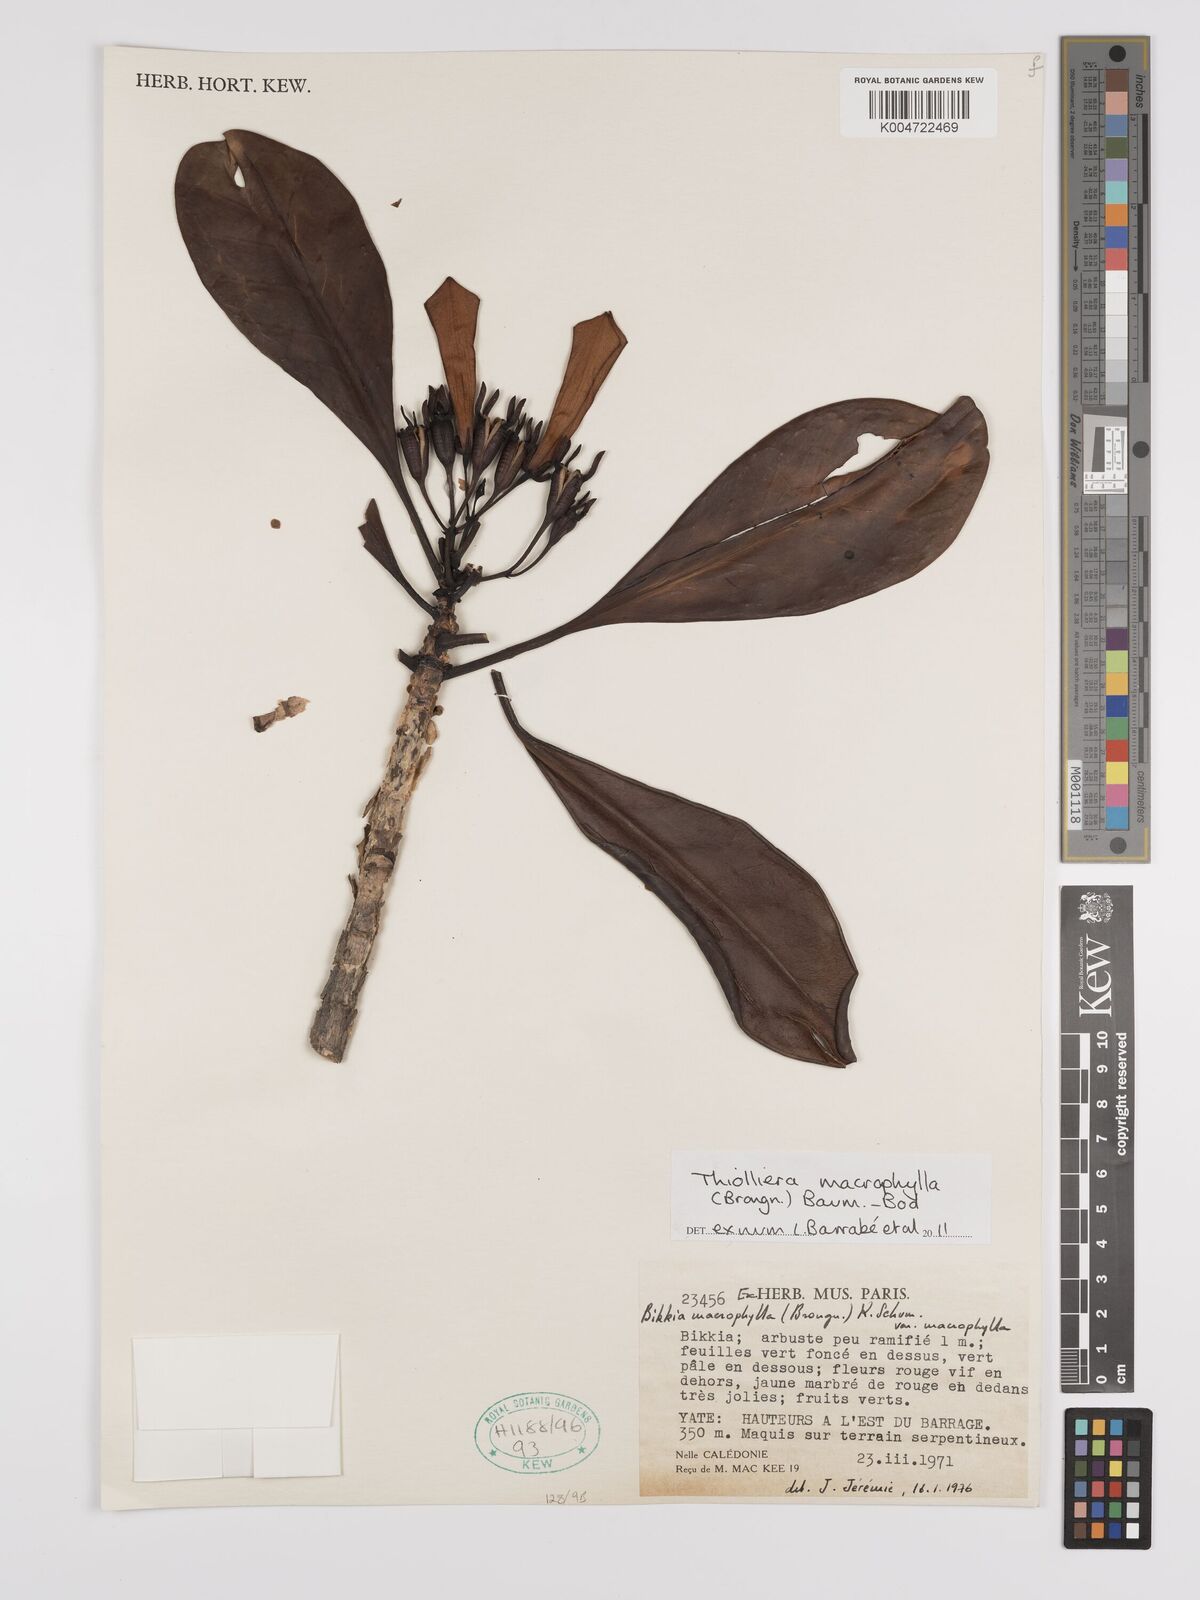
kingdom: Plantae
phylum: Tracheophyta
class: Magnoliopsida
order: Gentianales
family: Rubiaceae
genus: Thiollierea
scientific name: Thiollierea macrophylla
